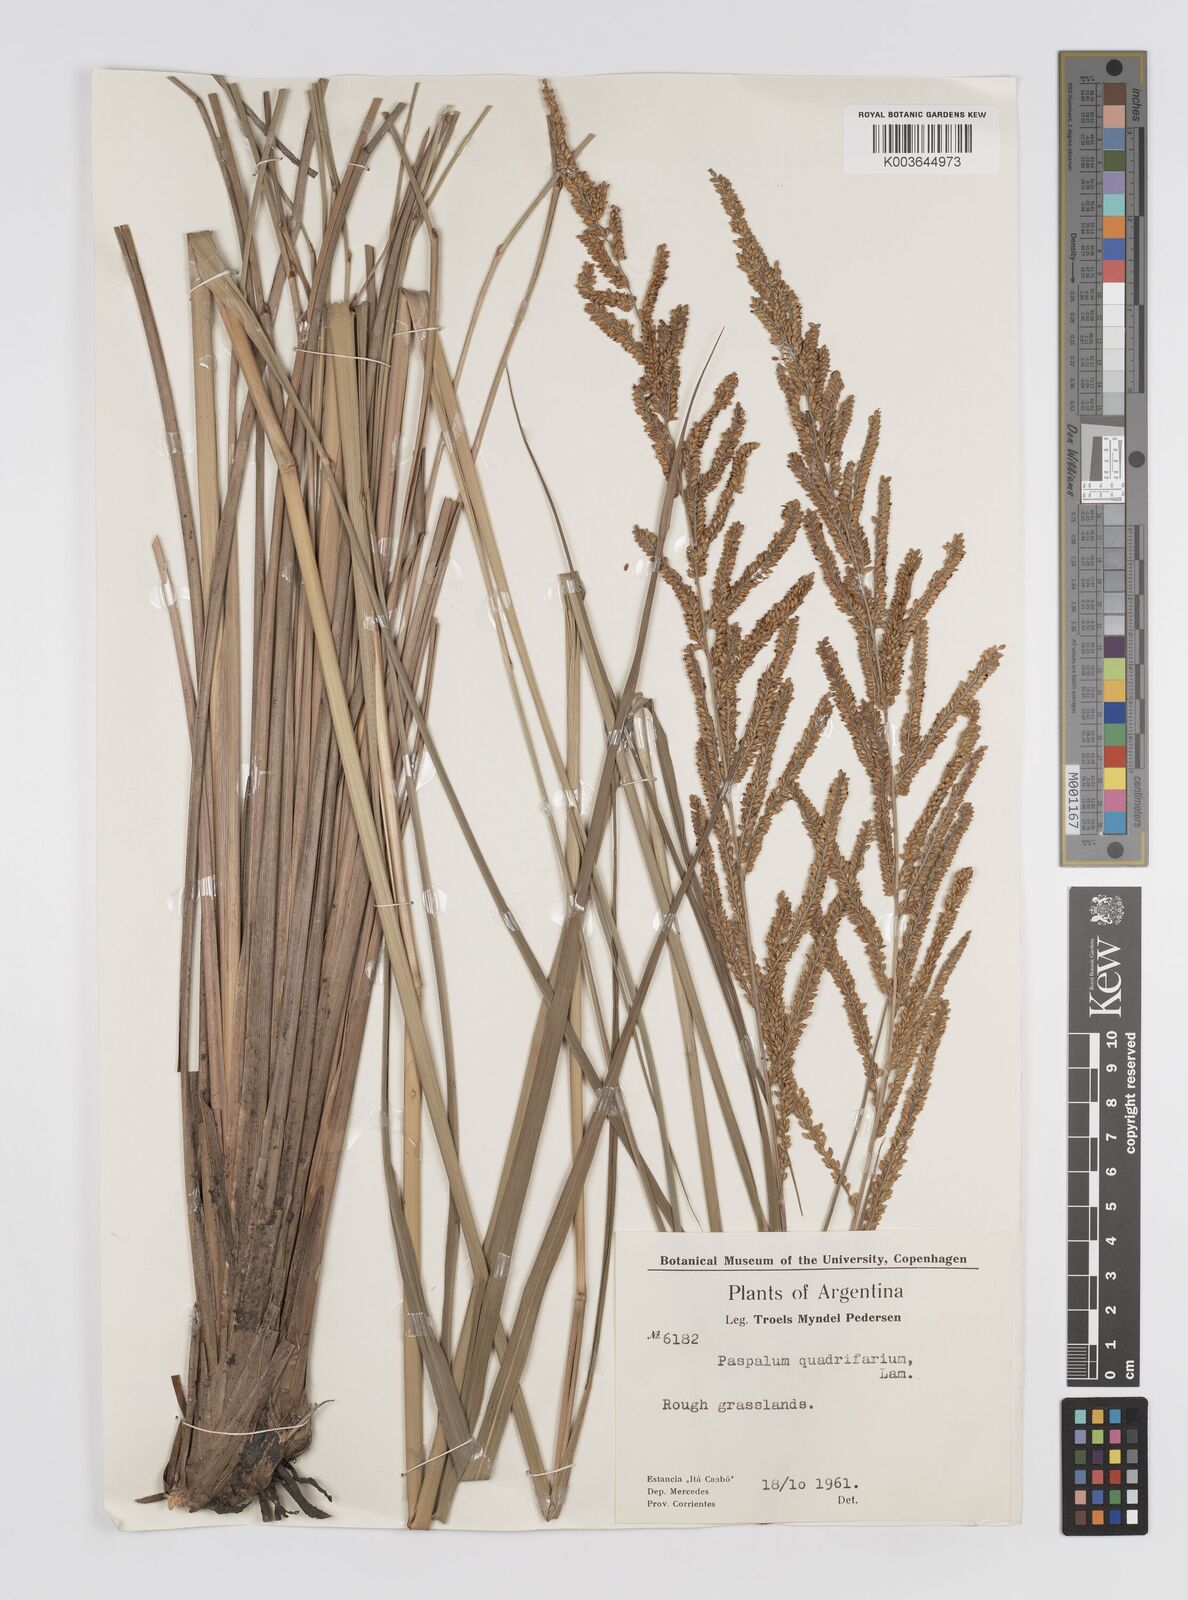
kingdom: Plantae
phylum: Tracheophyta
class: Liliopsida
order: Poales
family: Poaceae
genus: Paspalum
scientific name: Paspalum quadrifarium
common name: Tussock paspalum
